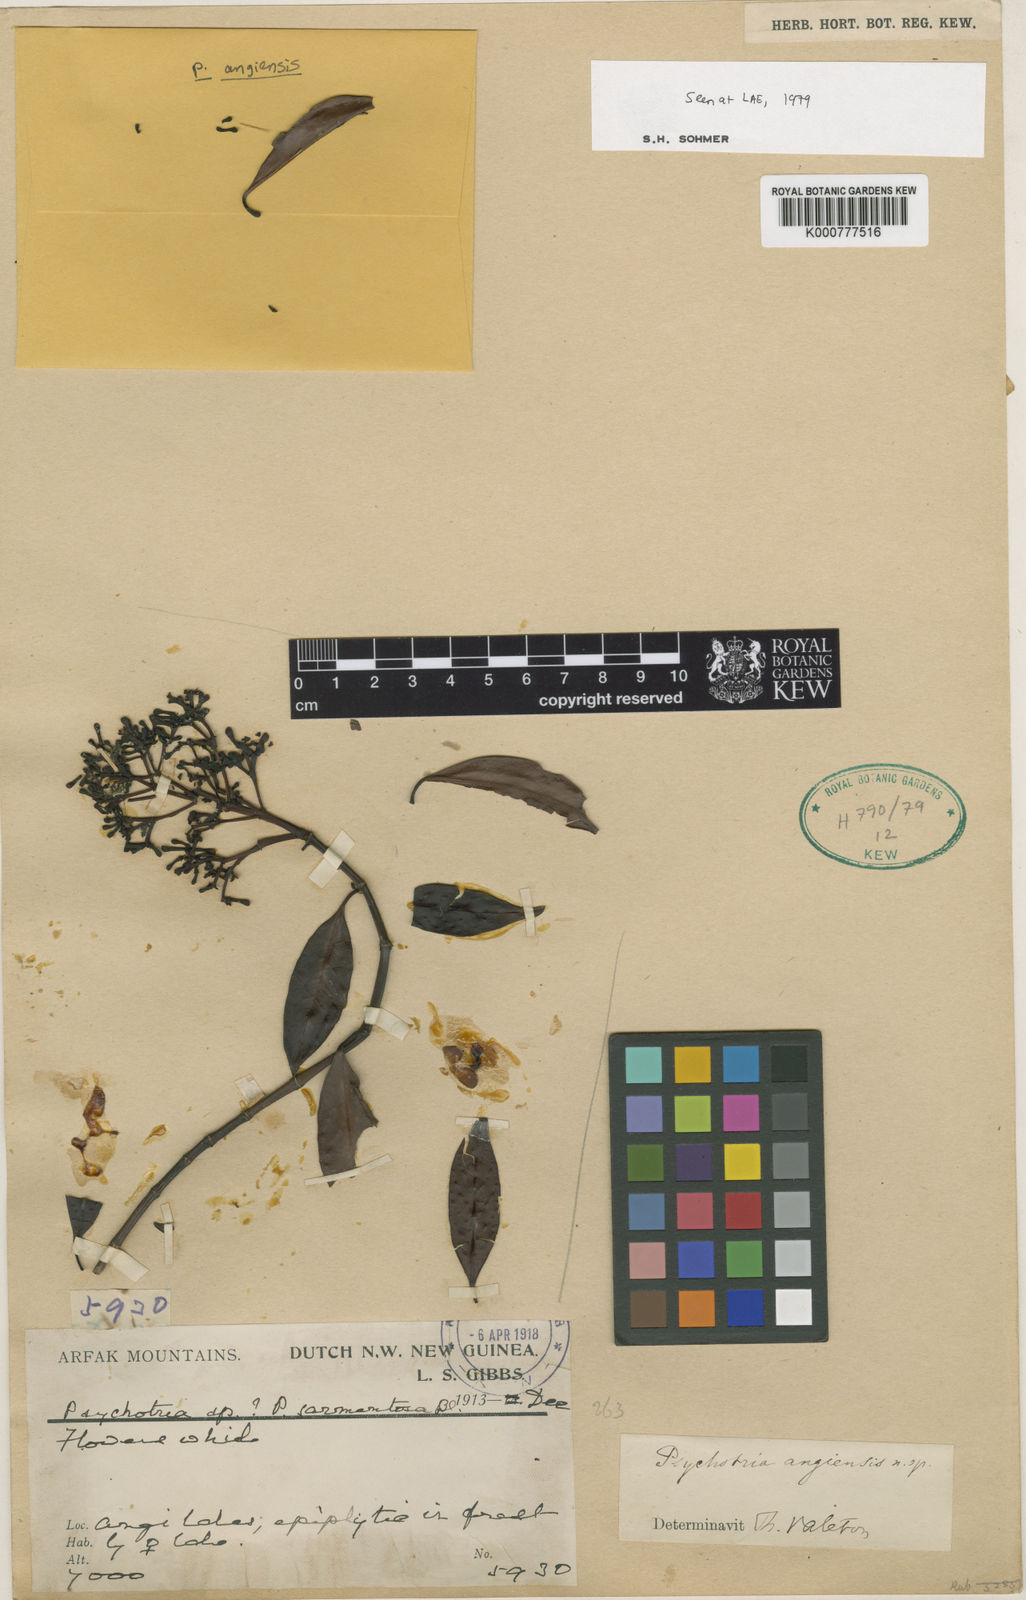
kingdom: Plantae
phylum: Tracheophyta
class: Magnoliopsida
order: Gentianales
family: Rubiaceae
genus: Psychotria
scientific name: Psychotria
